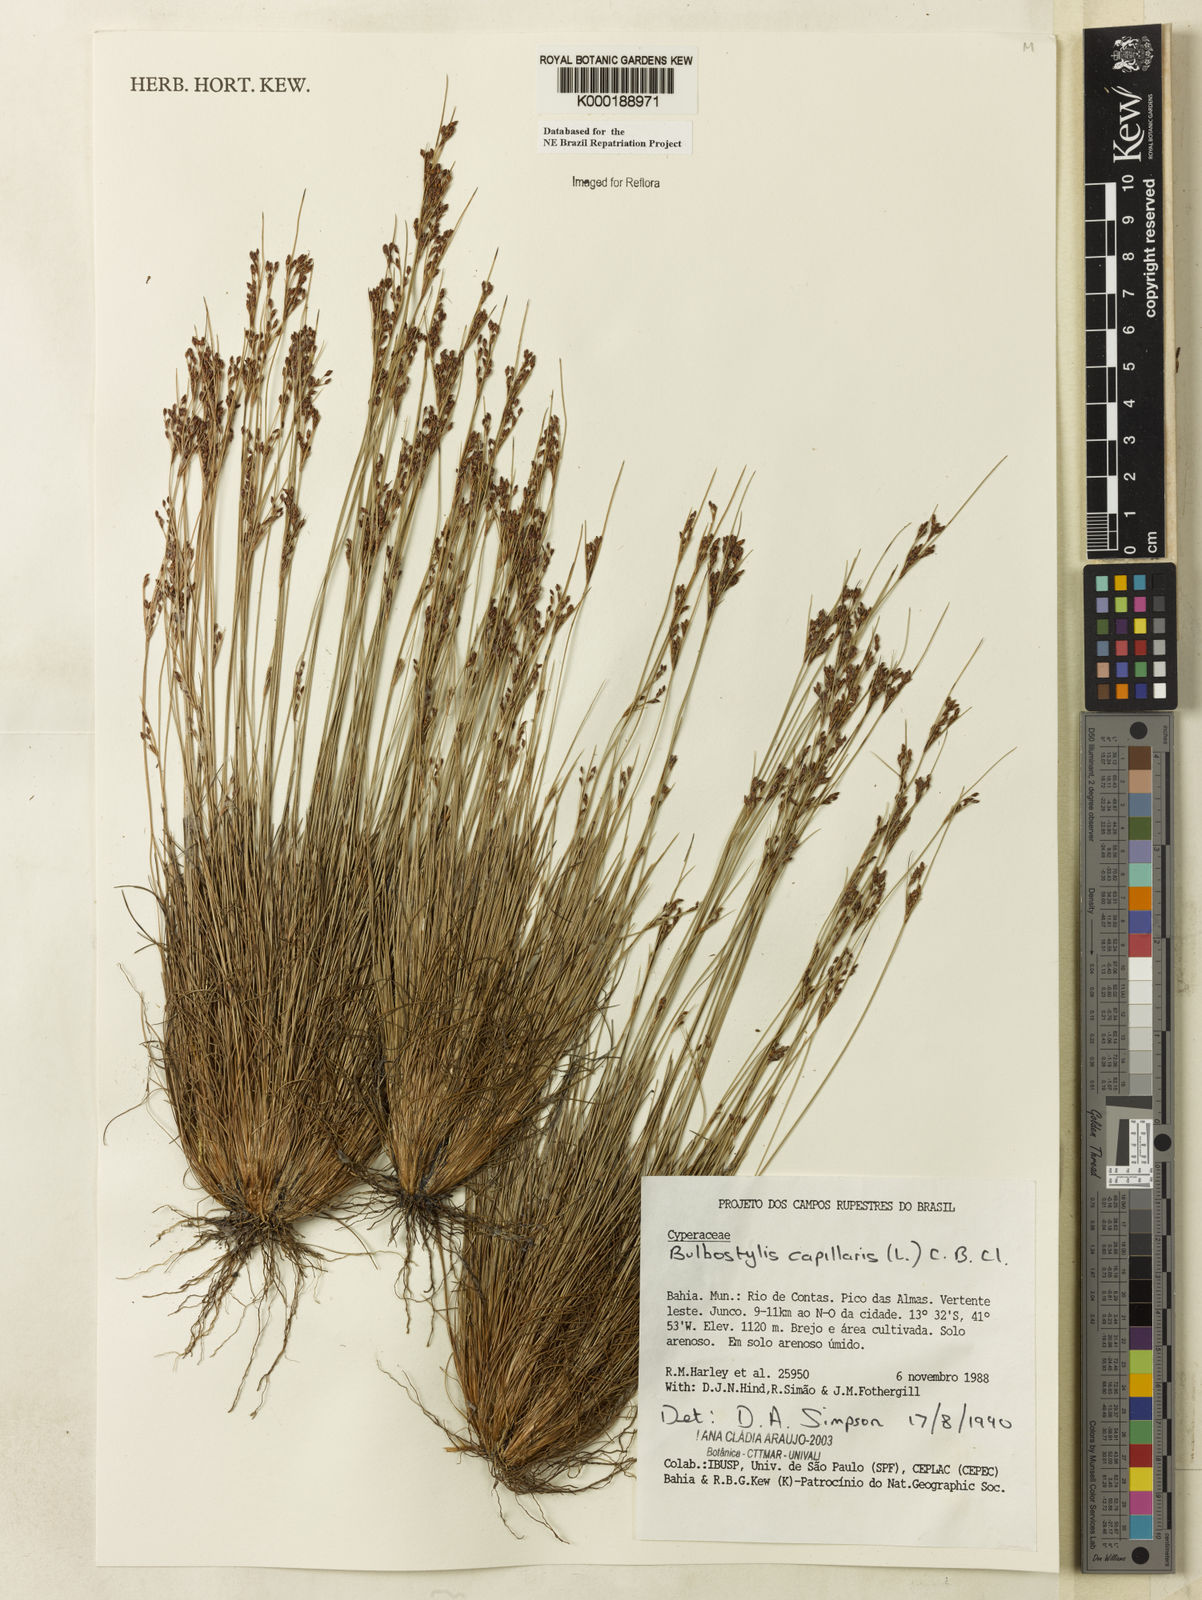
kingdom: Plantae
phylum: Tracheophyta
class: Liliopsida
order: Poales
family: Cyperaceae
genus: Bulbostylis
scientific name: Bulbostylis capillaris
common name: Densetuft hairsedge
